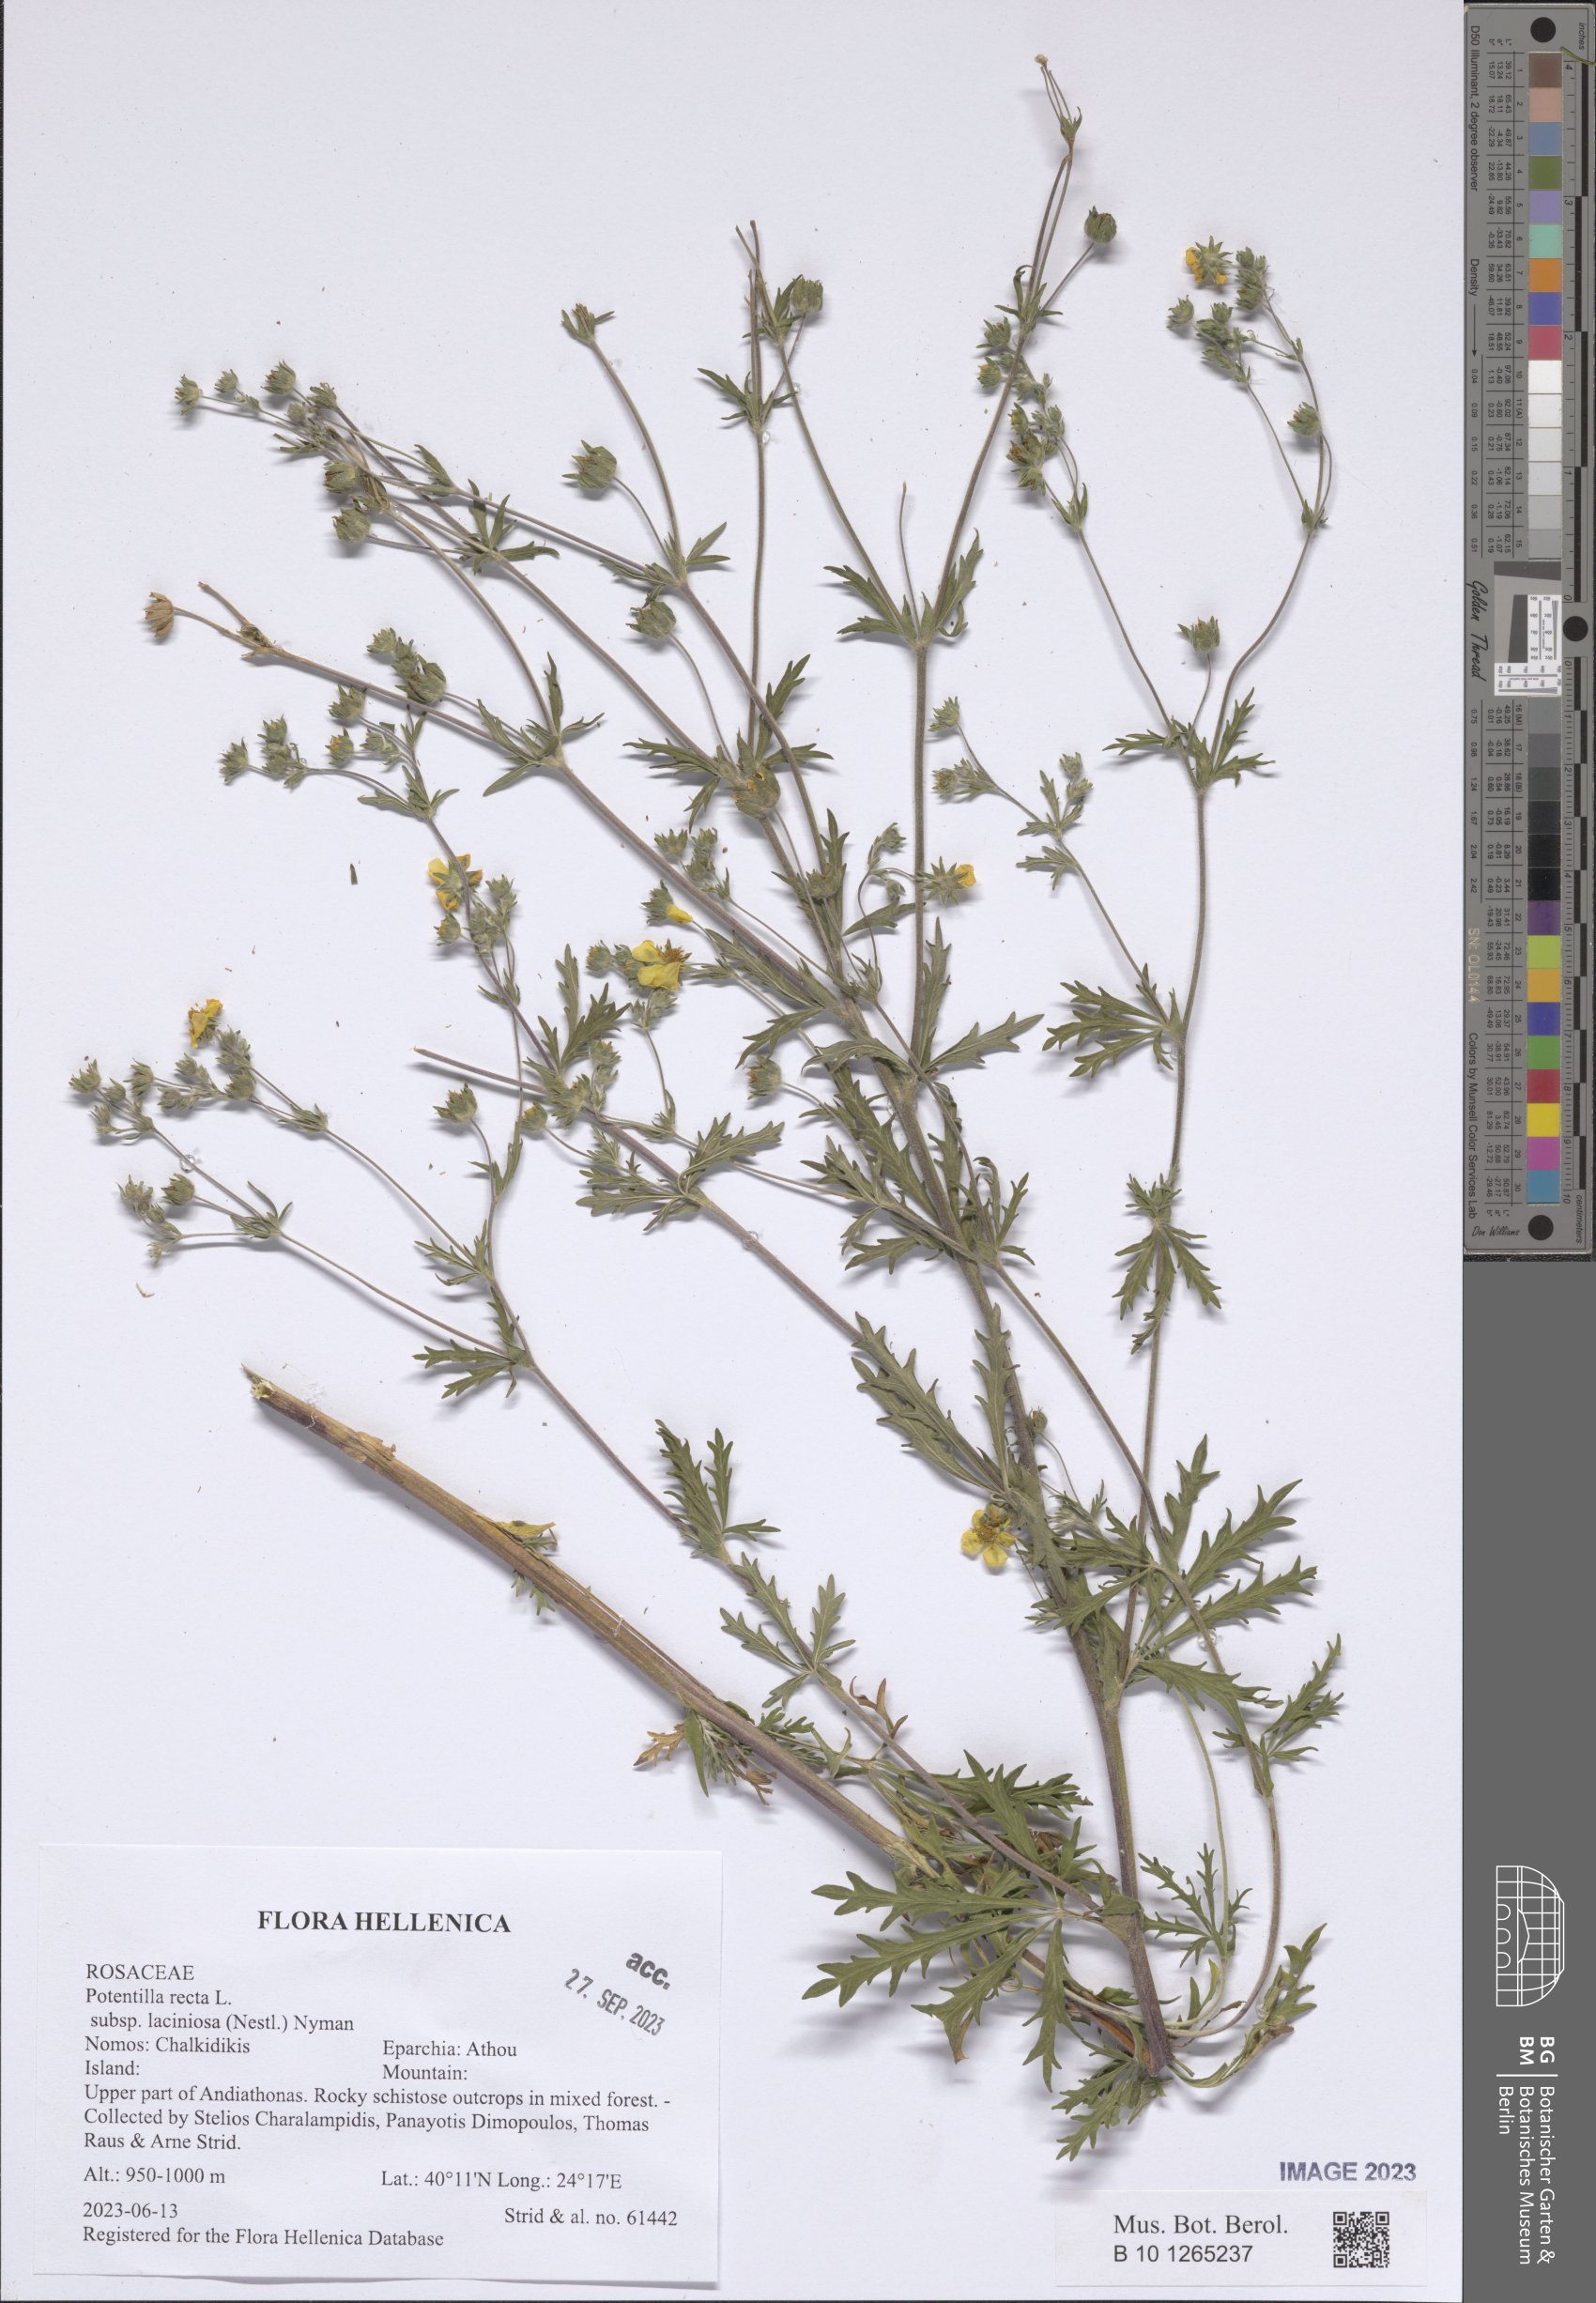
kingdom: Plantae
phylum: Tracheophyta
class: Magnoliopsida
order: Rosales
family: Rosaceae
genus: Potentilla
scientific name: Potentilla recta
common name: Sulphur cinquefoil
